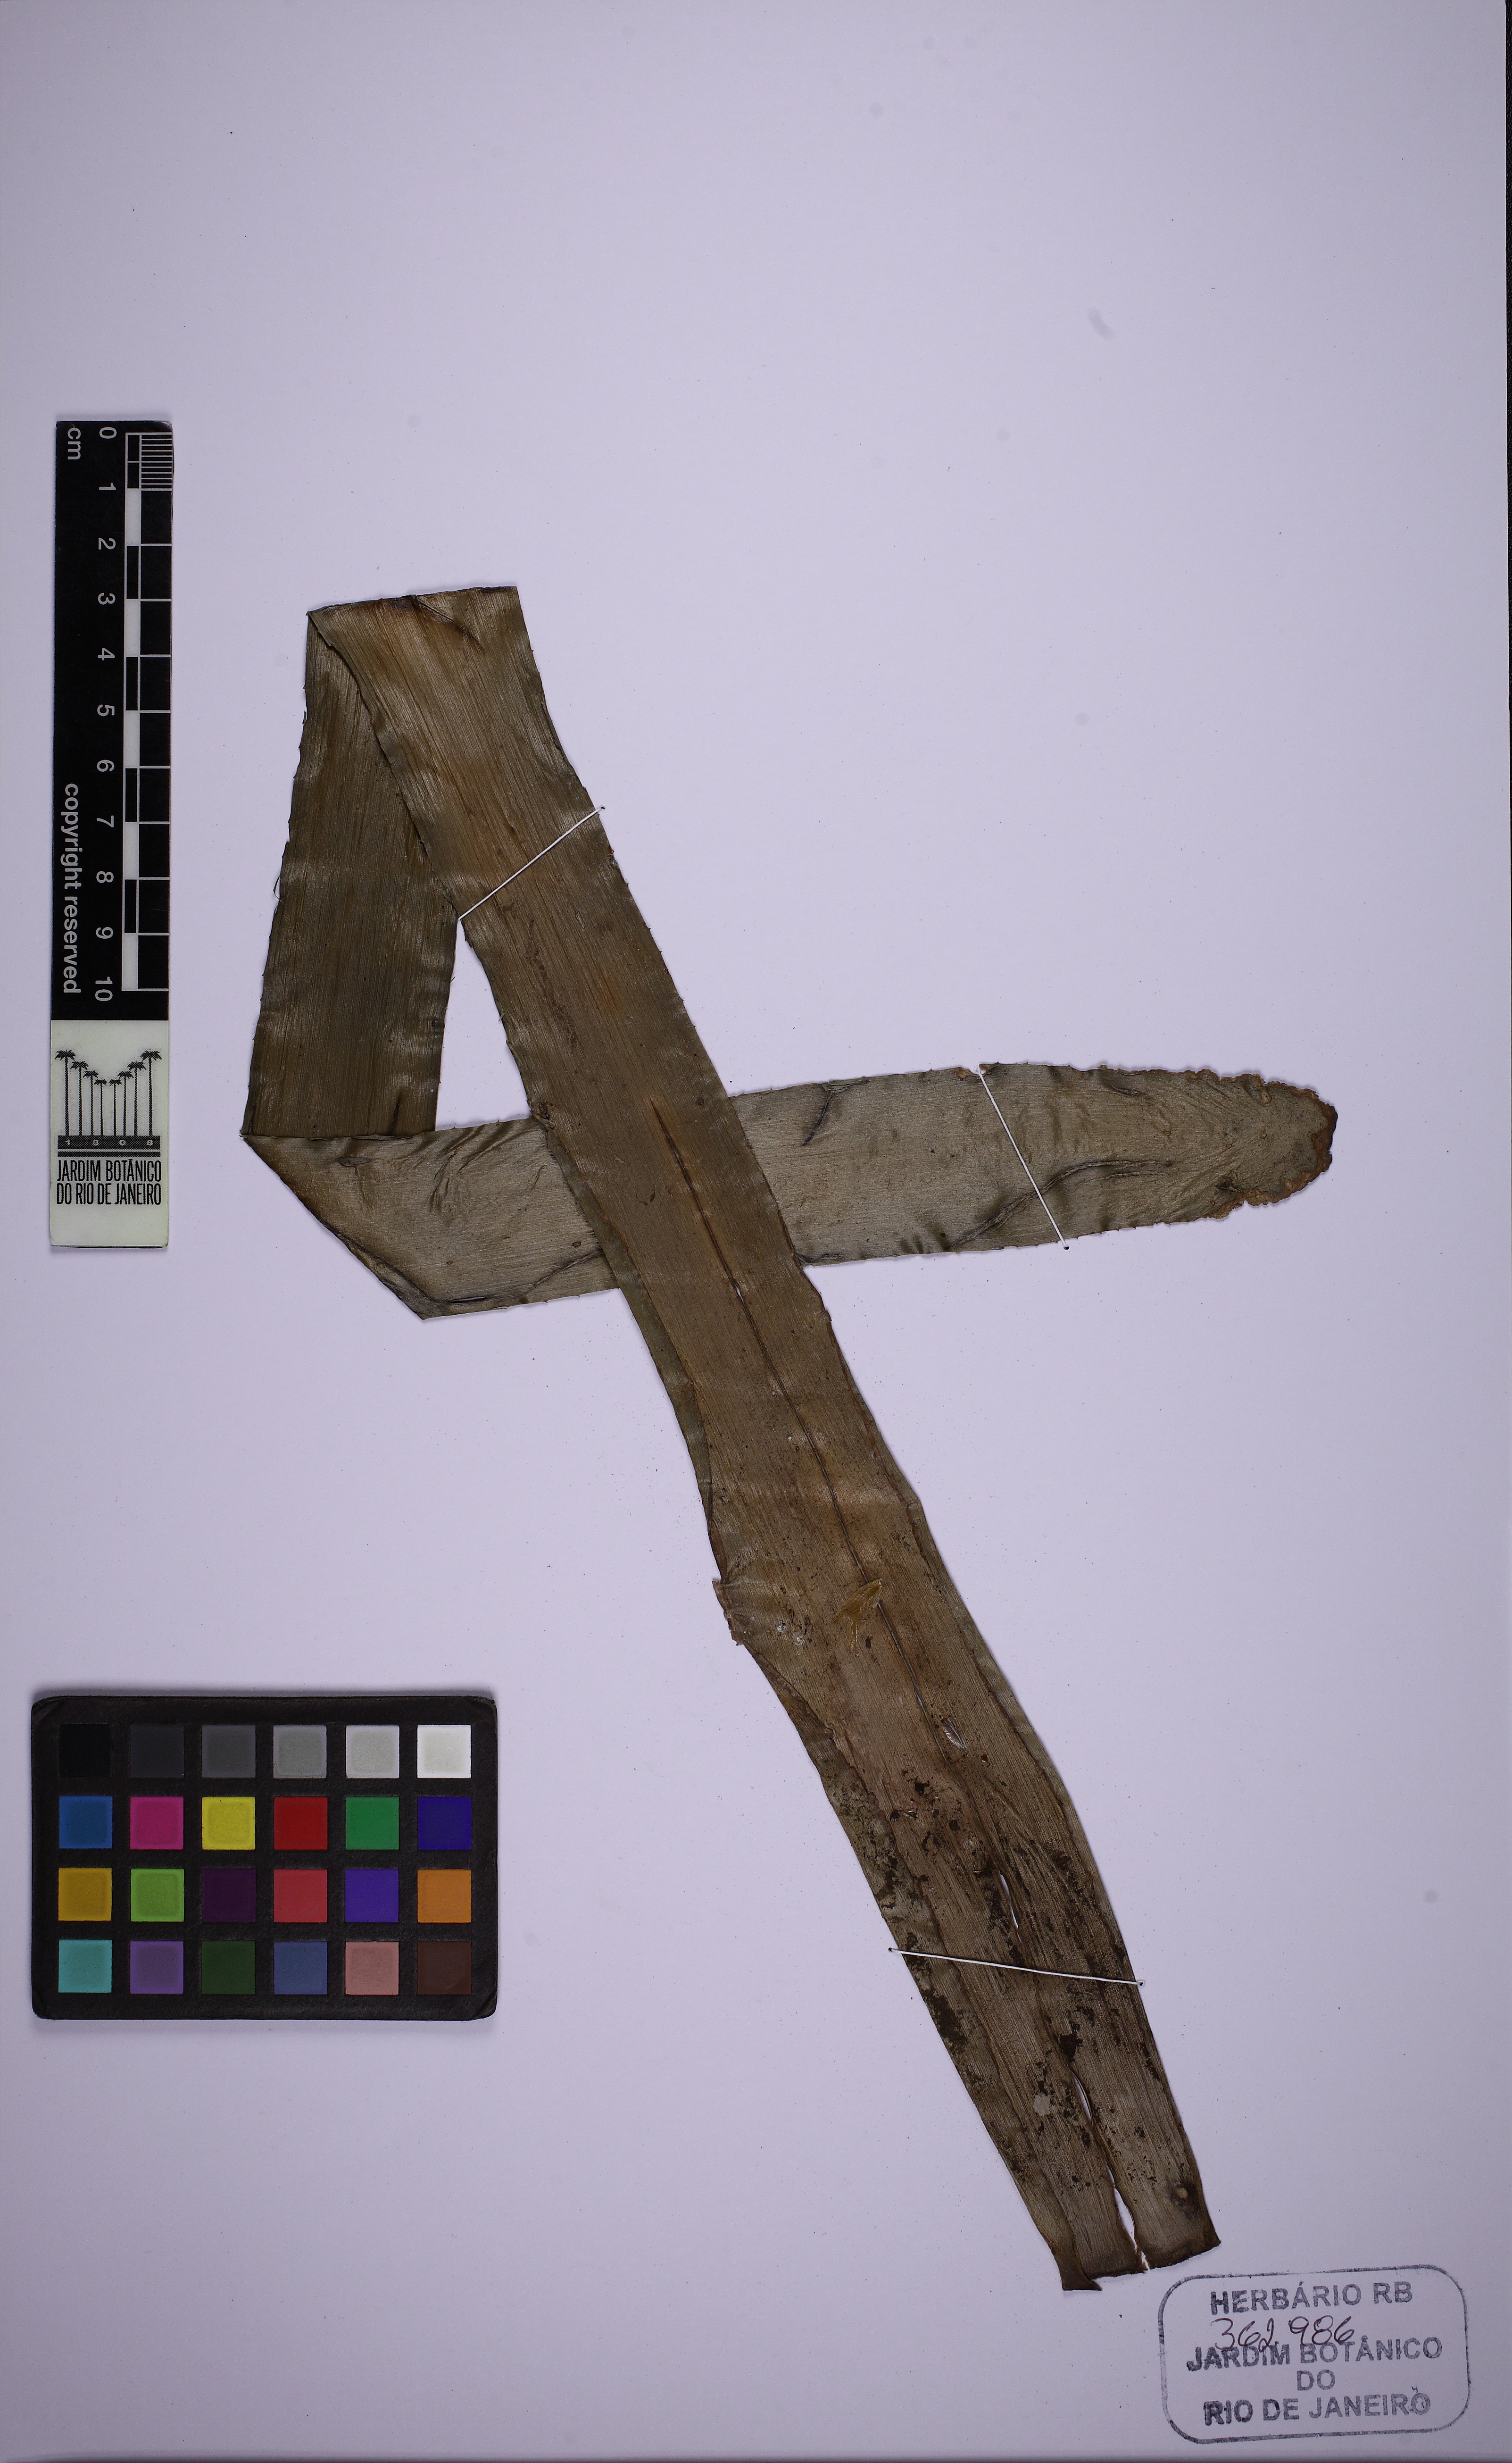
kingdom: Plantae
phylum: Tracheophyta
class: Liliopsida
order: Poales
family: Bromeliaceae
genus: Billbergia
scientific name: Billbergia amoena
